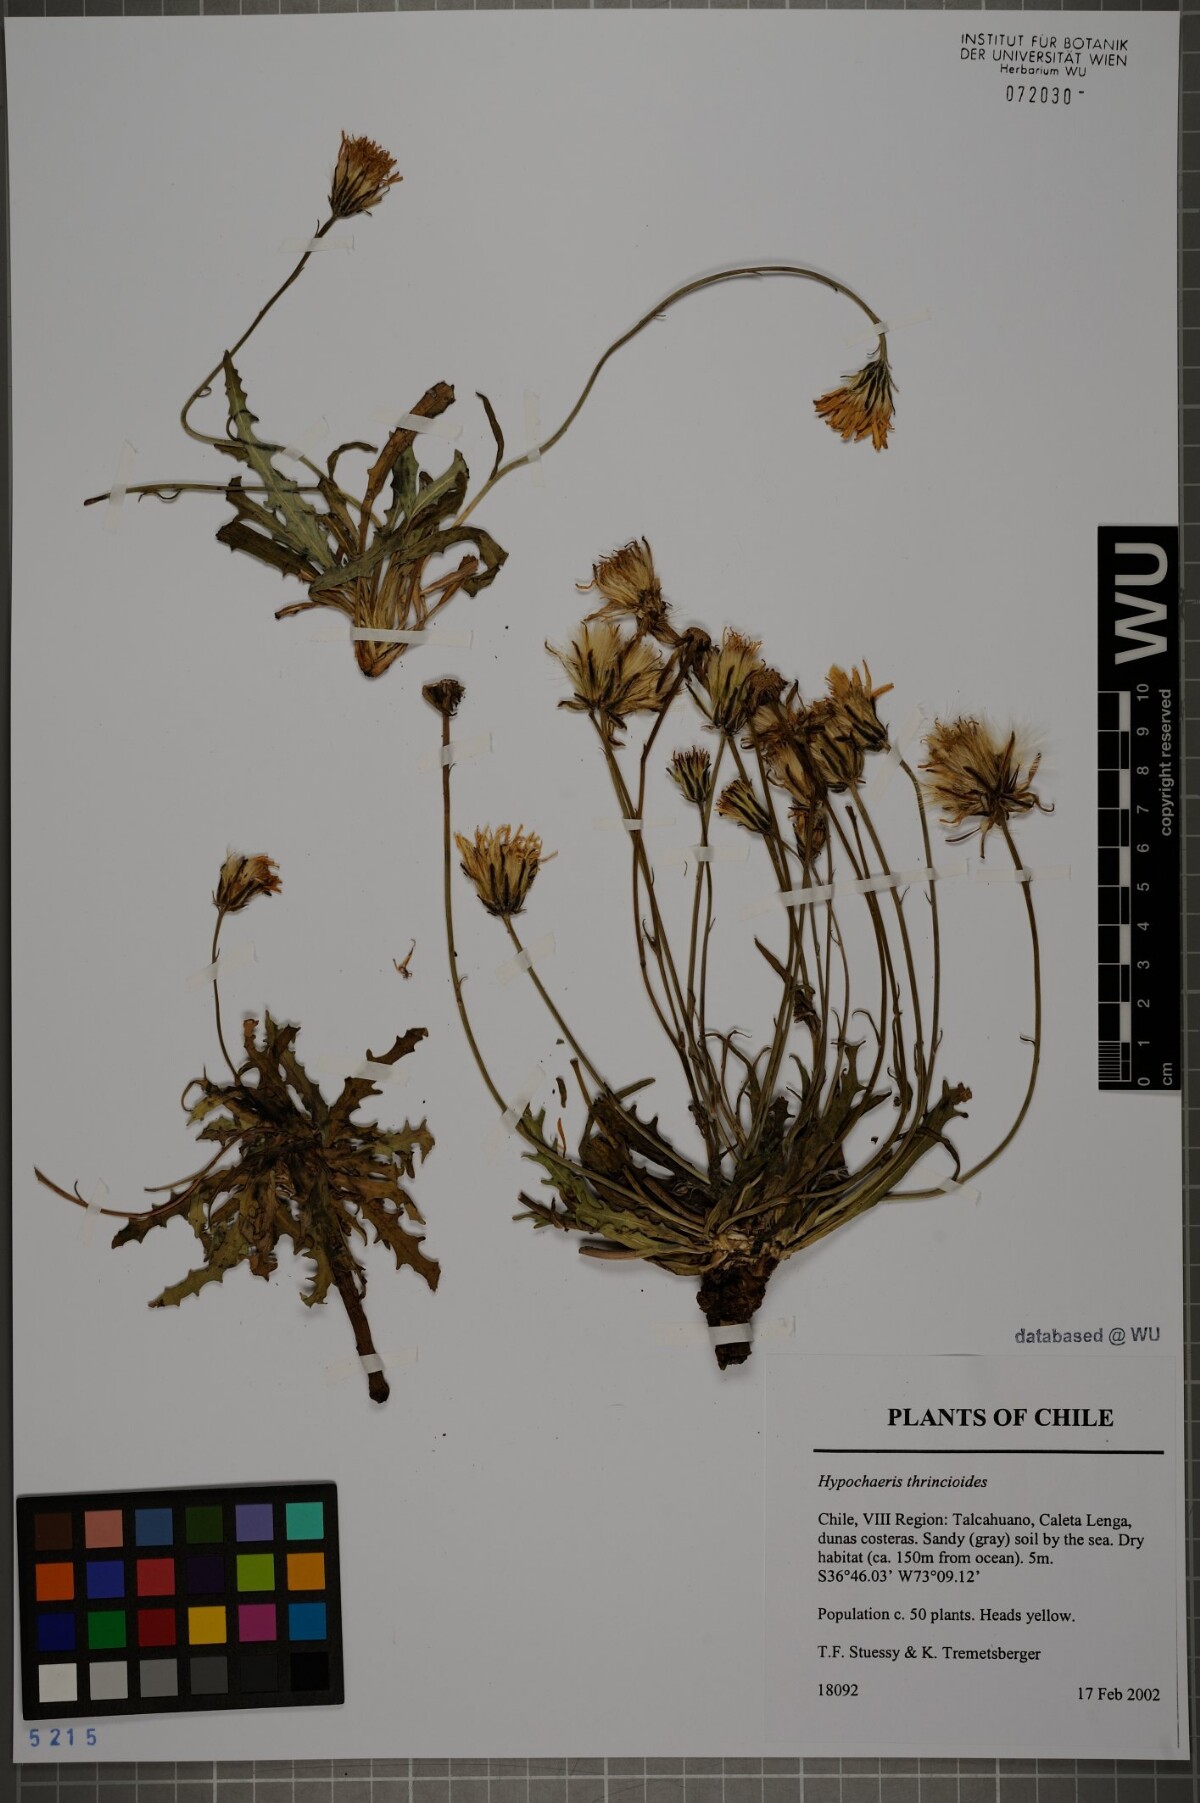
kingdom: Plantae
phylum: Tracheophyta
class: Magnoliopsida
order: Asterales
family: Asteraceae
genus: Hypochaeris
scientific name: Hypochaeris apargioides
